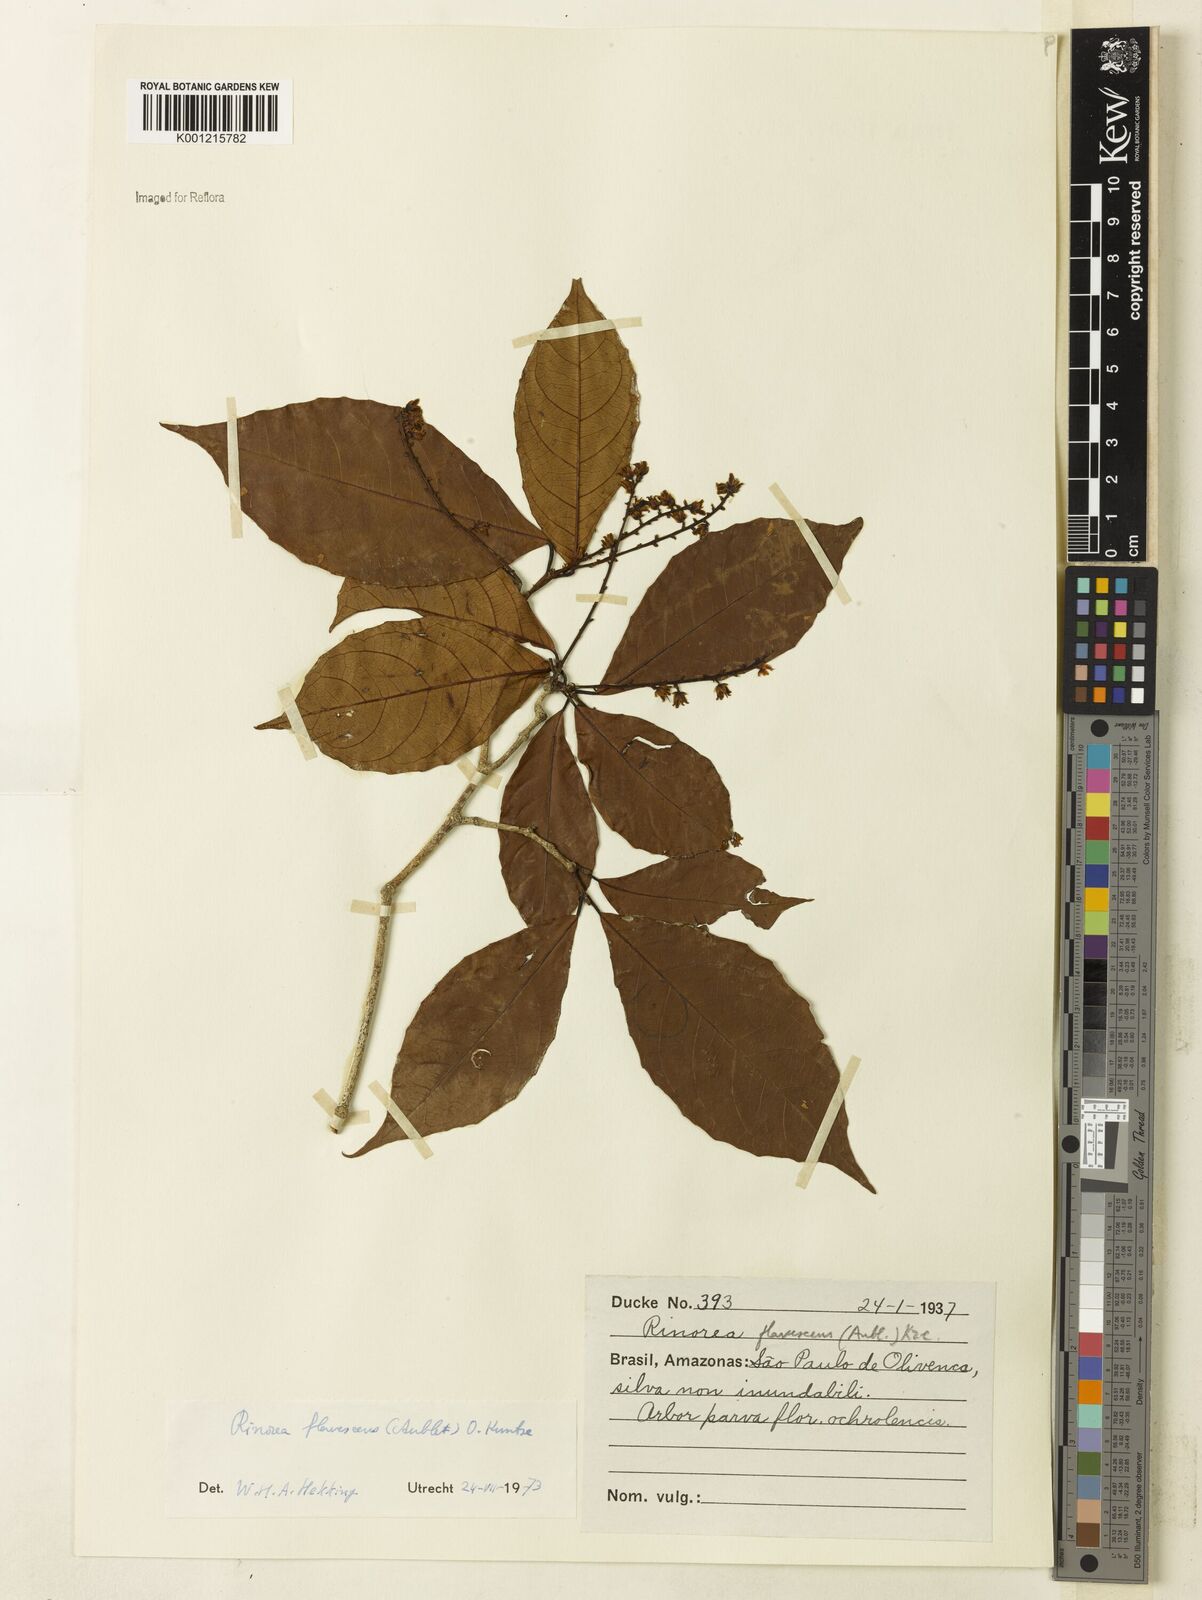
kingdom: Plantae
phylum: Tracheophyta
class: Magnoliopsida
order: Malpighiales
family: Violaceae
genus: Rinorea
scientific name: Rinorea flavescens
